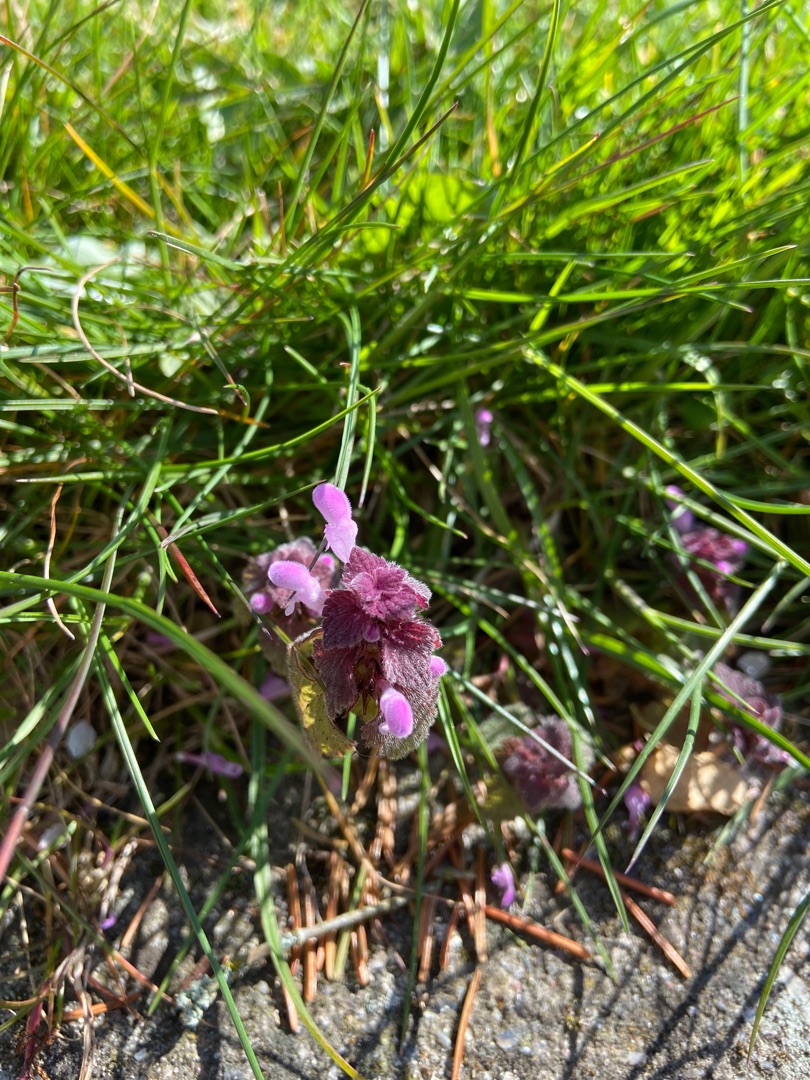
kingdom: Plantae
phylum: Tracheophyta
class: Magnoliopsida
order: Lamiales
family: Lamiaceae
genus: Lamium
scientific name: Lamium purpureum
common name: Rød tvetand
